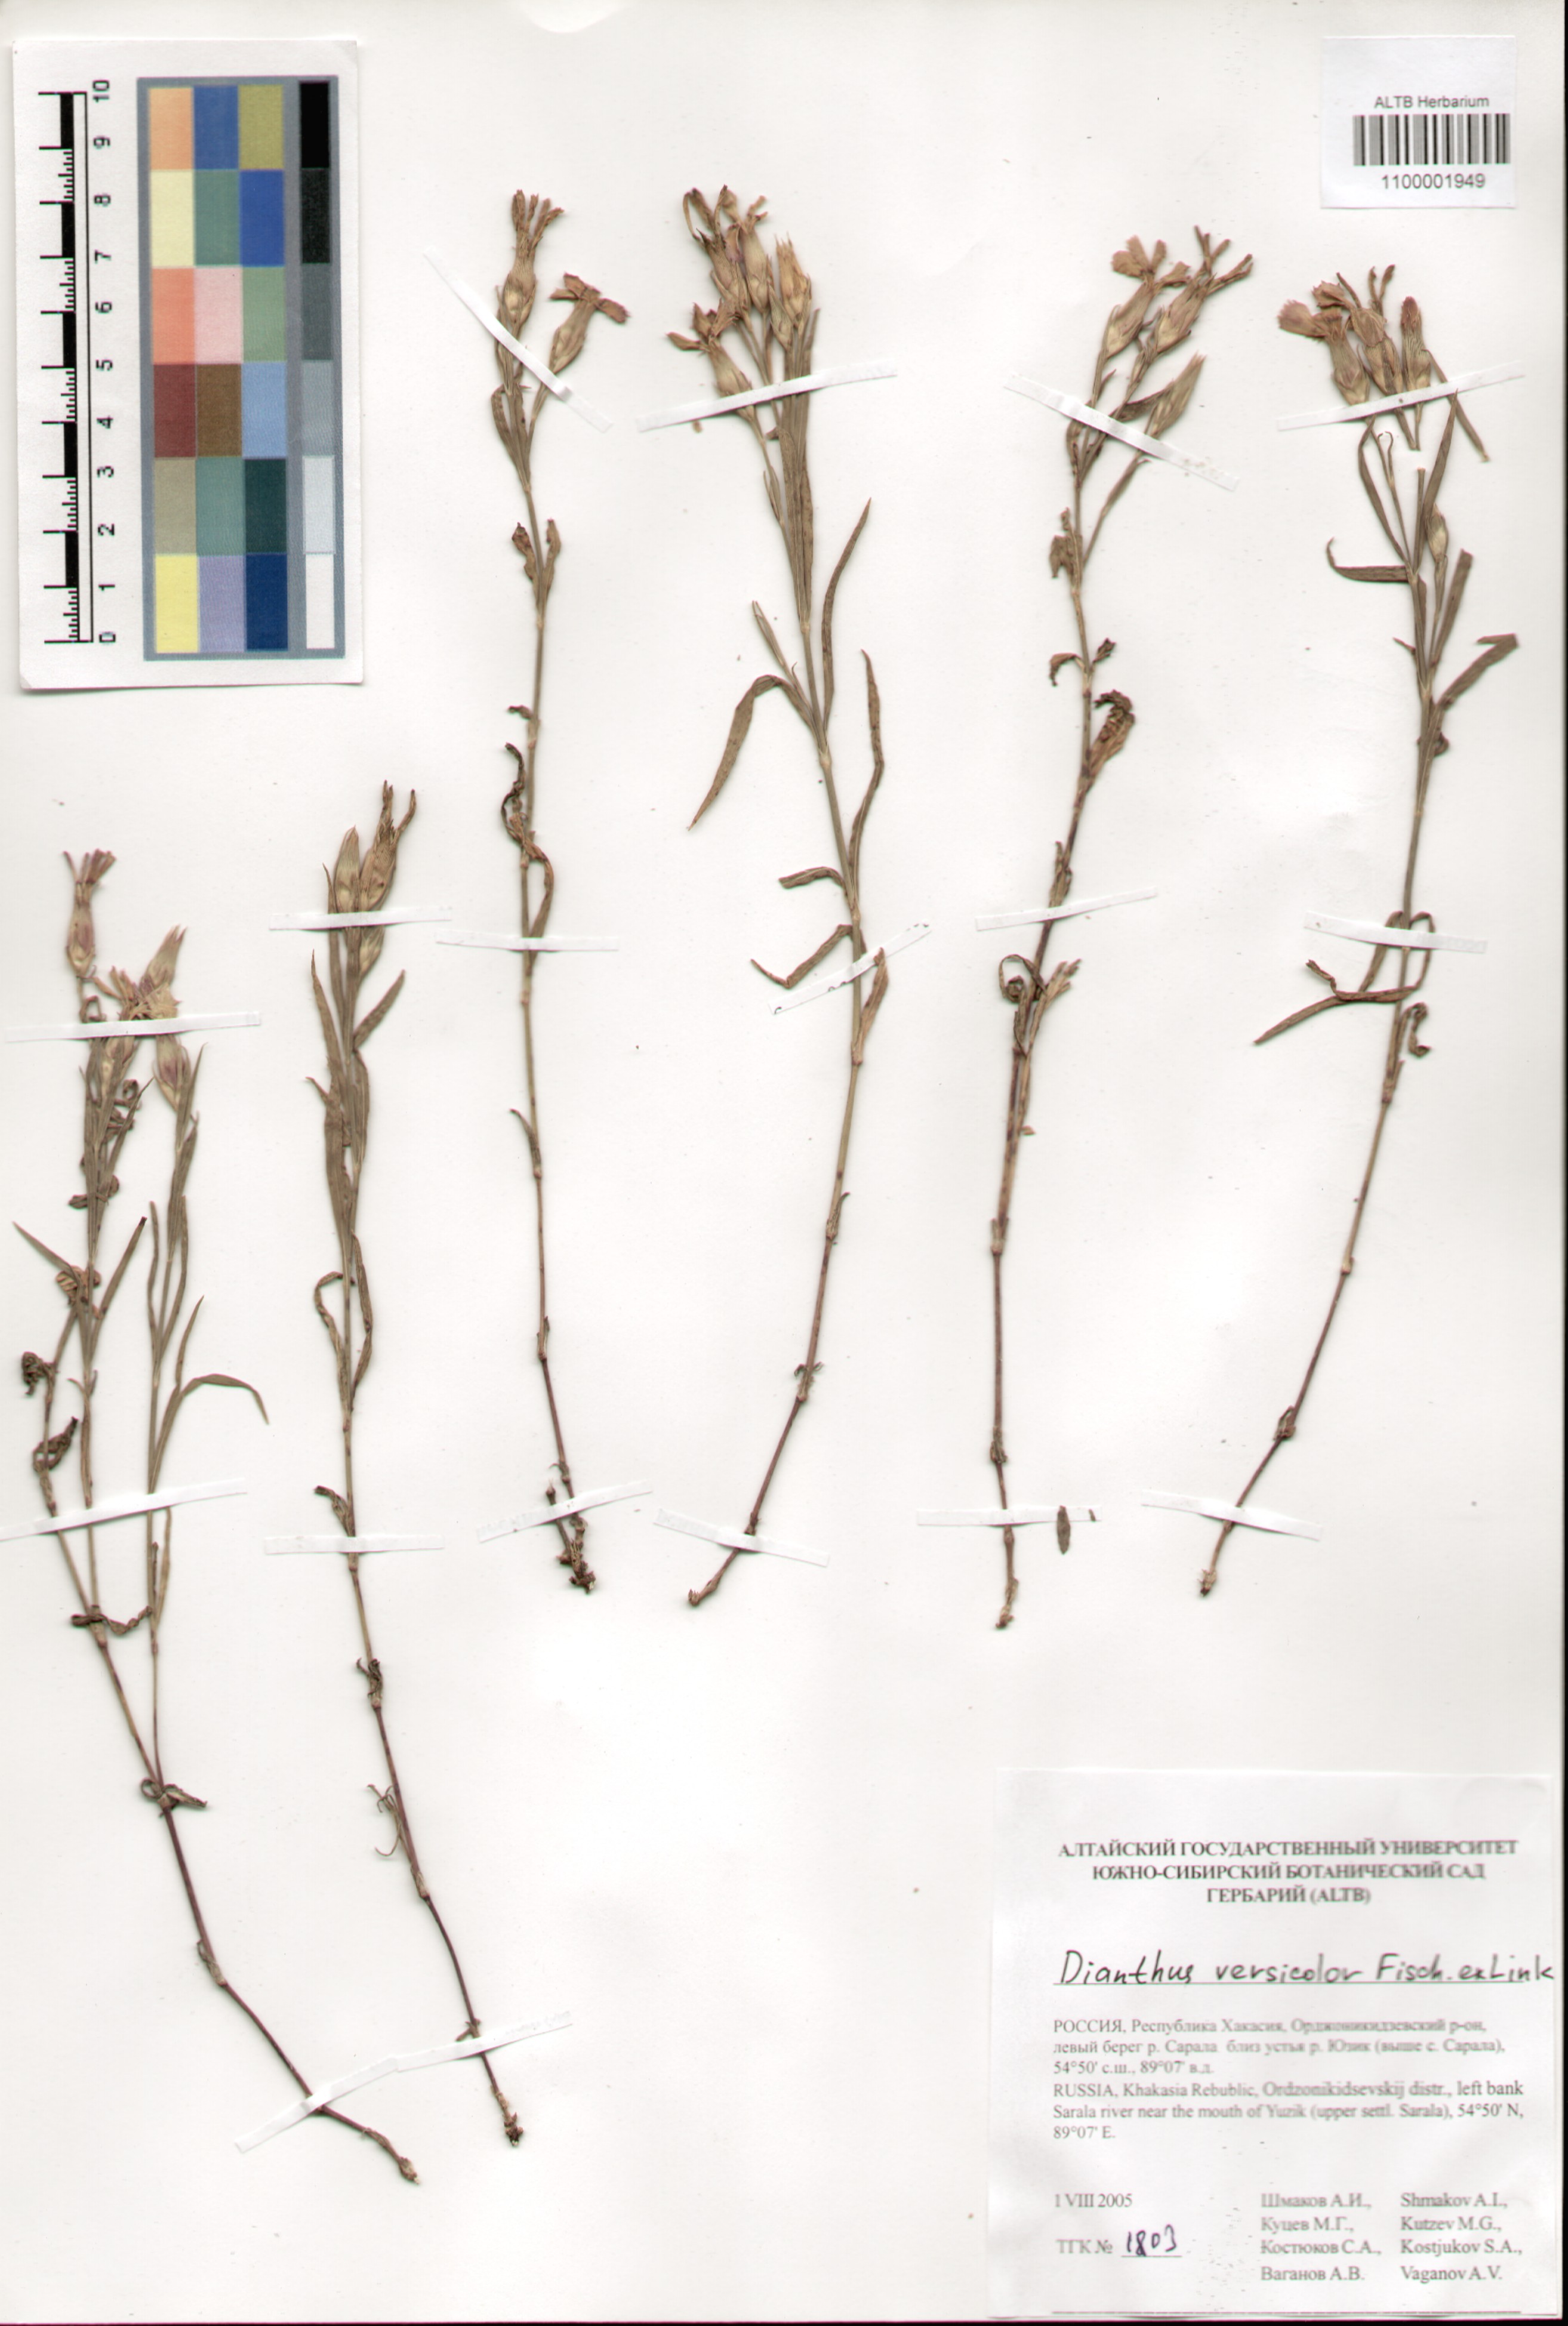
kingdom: Plantae
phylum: Tracheophyta
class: Magnoliopsida
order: Caryophyllales
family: Caryophyllaceae
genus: Dianthus
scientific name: Dianthus chinensis
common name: Rainbow pink
